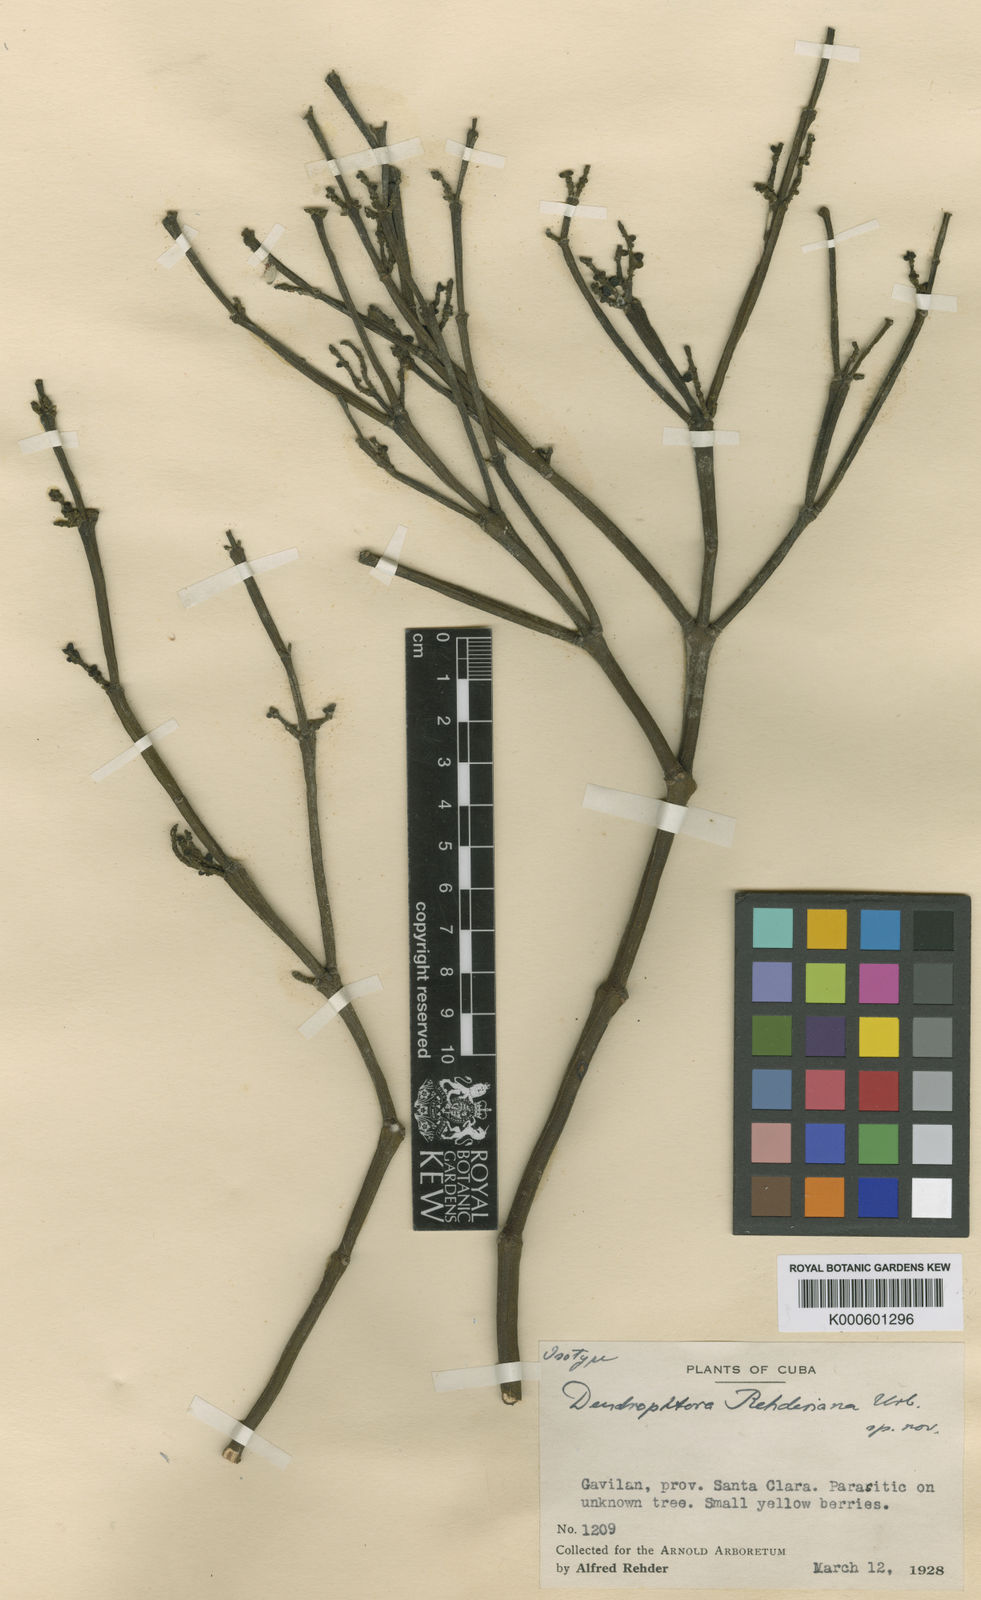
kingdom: Plantae
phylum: Tracheophyta
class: Magnoliopsida
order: Santalales
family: Viscaceae
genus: Dendrophthora
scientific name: Dendrophthora
